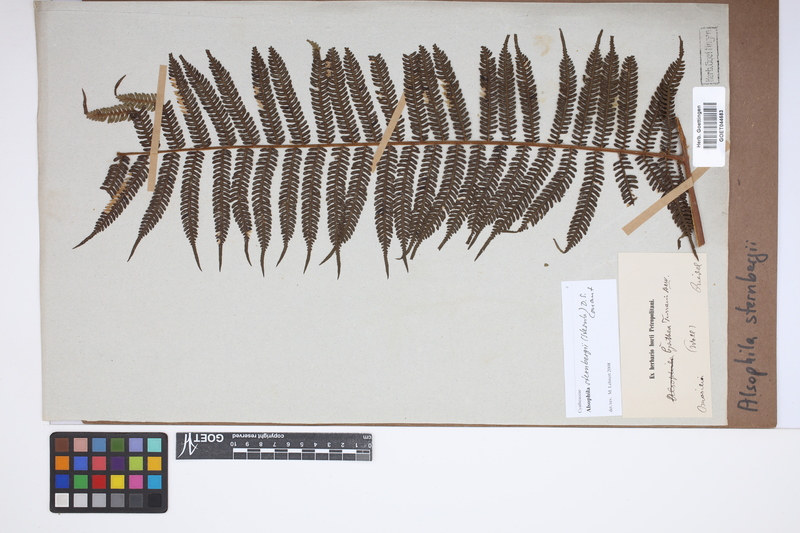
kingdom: Plantae
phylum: Tracheophyta
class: Polypodiopsida
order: Cyatheales
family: Cyatheaceae
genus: Alsophila
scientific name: Alsophila sternbergii
